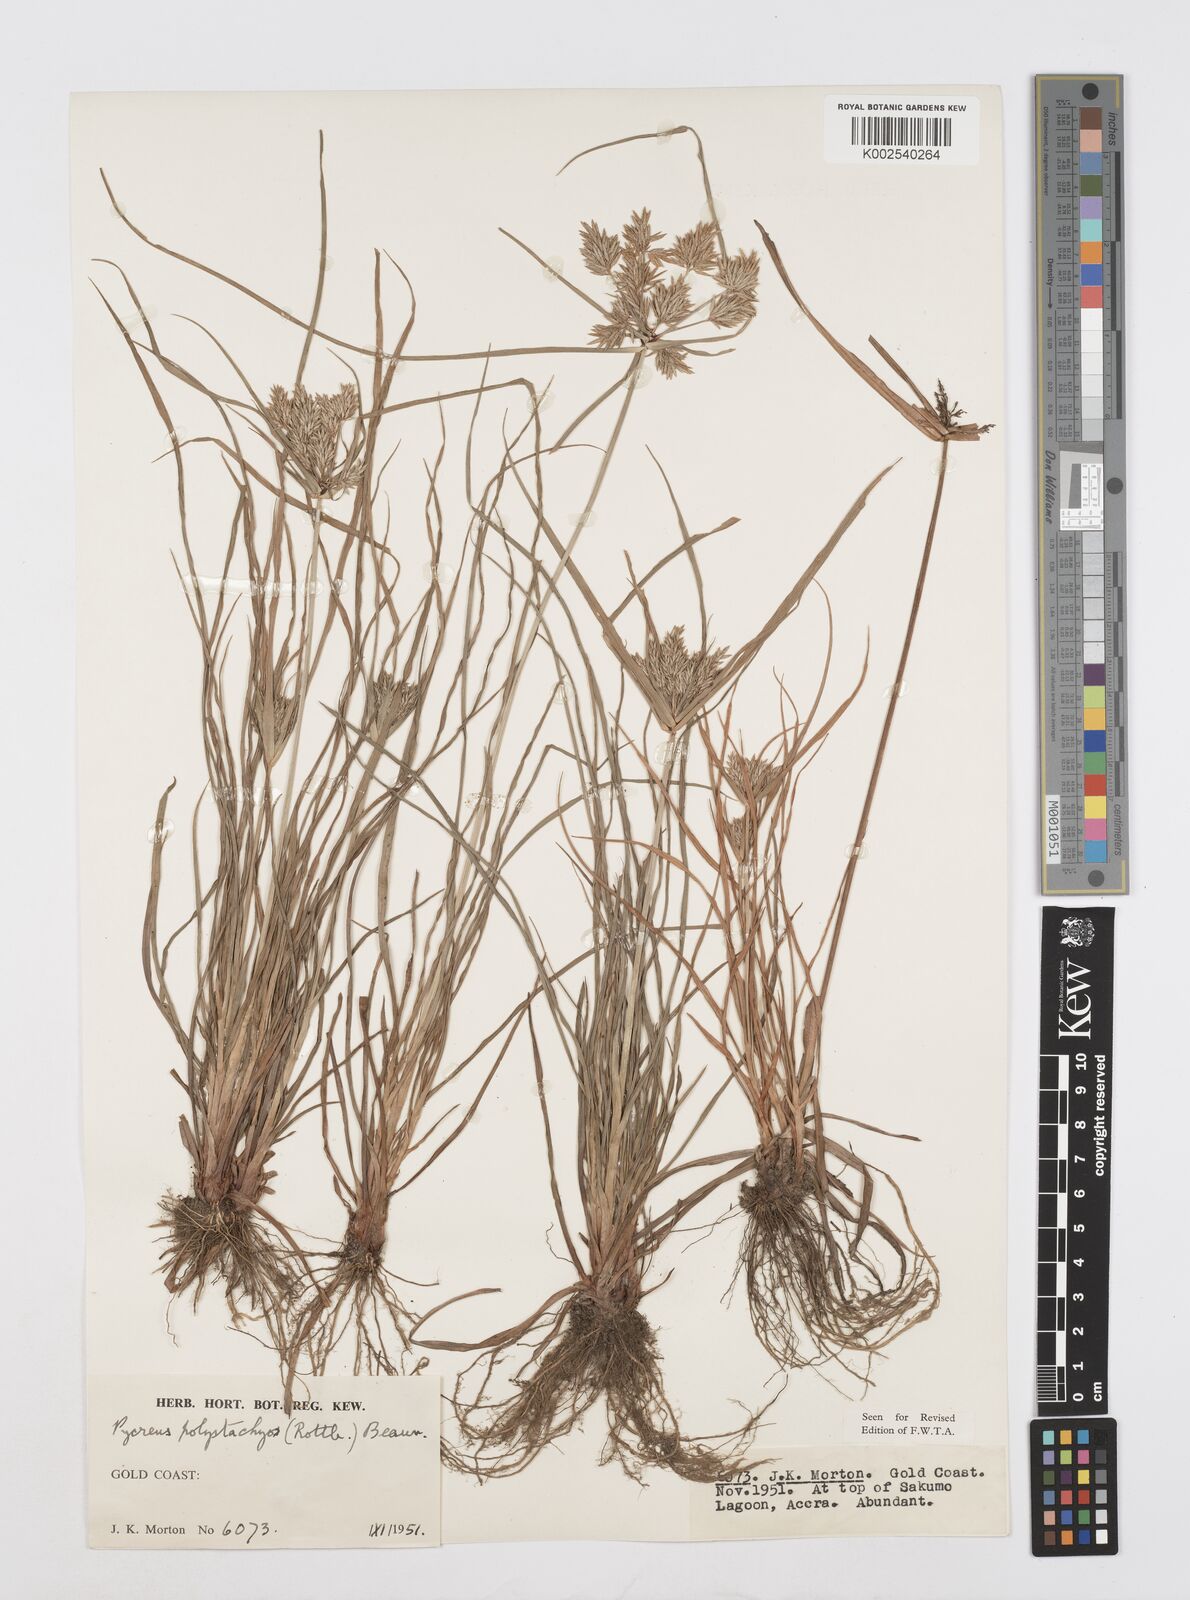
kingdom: Plantae
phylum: Tracheophyta
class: Liliopsida
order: Poales
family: Cyperaceae
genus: Cyperus
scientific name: Cyperus polystachyos
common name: Bunchy flat sedge
